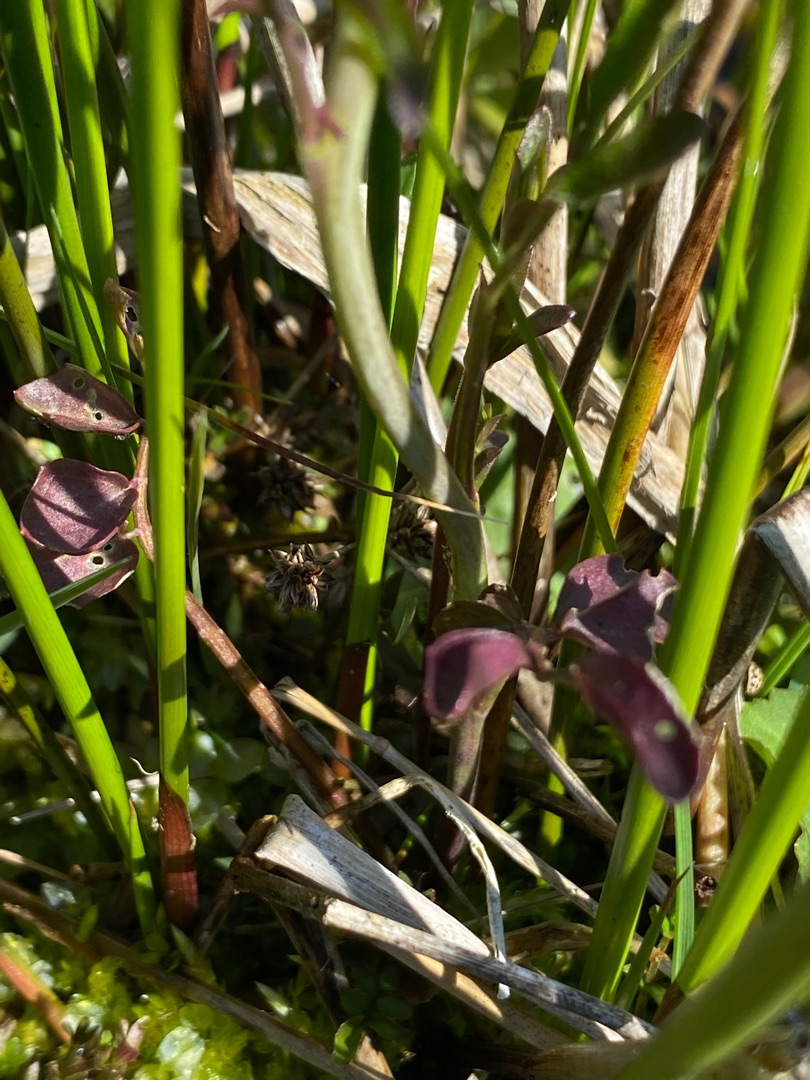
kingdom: Plantae
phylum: Tracheophyta
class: Magnoliopsida
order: Brassicales
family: Brassicaceae
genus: Cardamine
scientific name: Cardamine pratensis
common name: Engkarse
